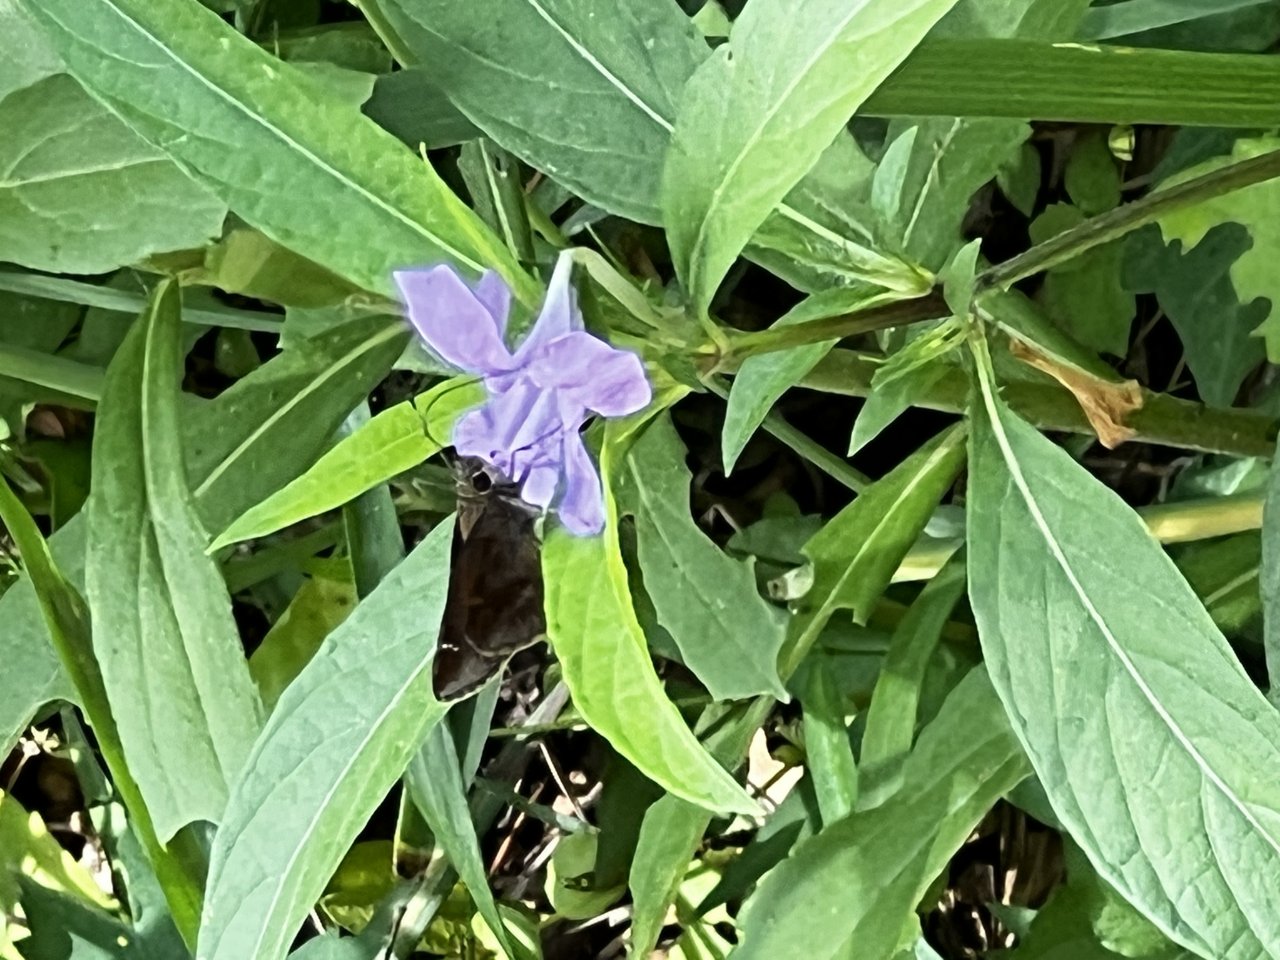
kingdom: Animalia
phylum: Arthropoda
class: Insecta
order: Lepidoptera
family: Hesperiidae
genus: Lerema
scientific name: Lerema accius
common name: Clouded Skipper
